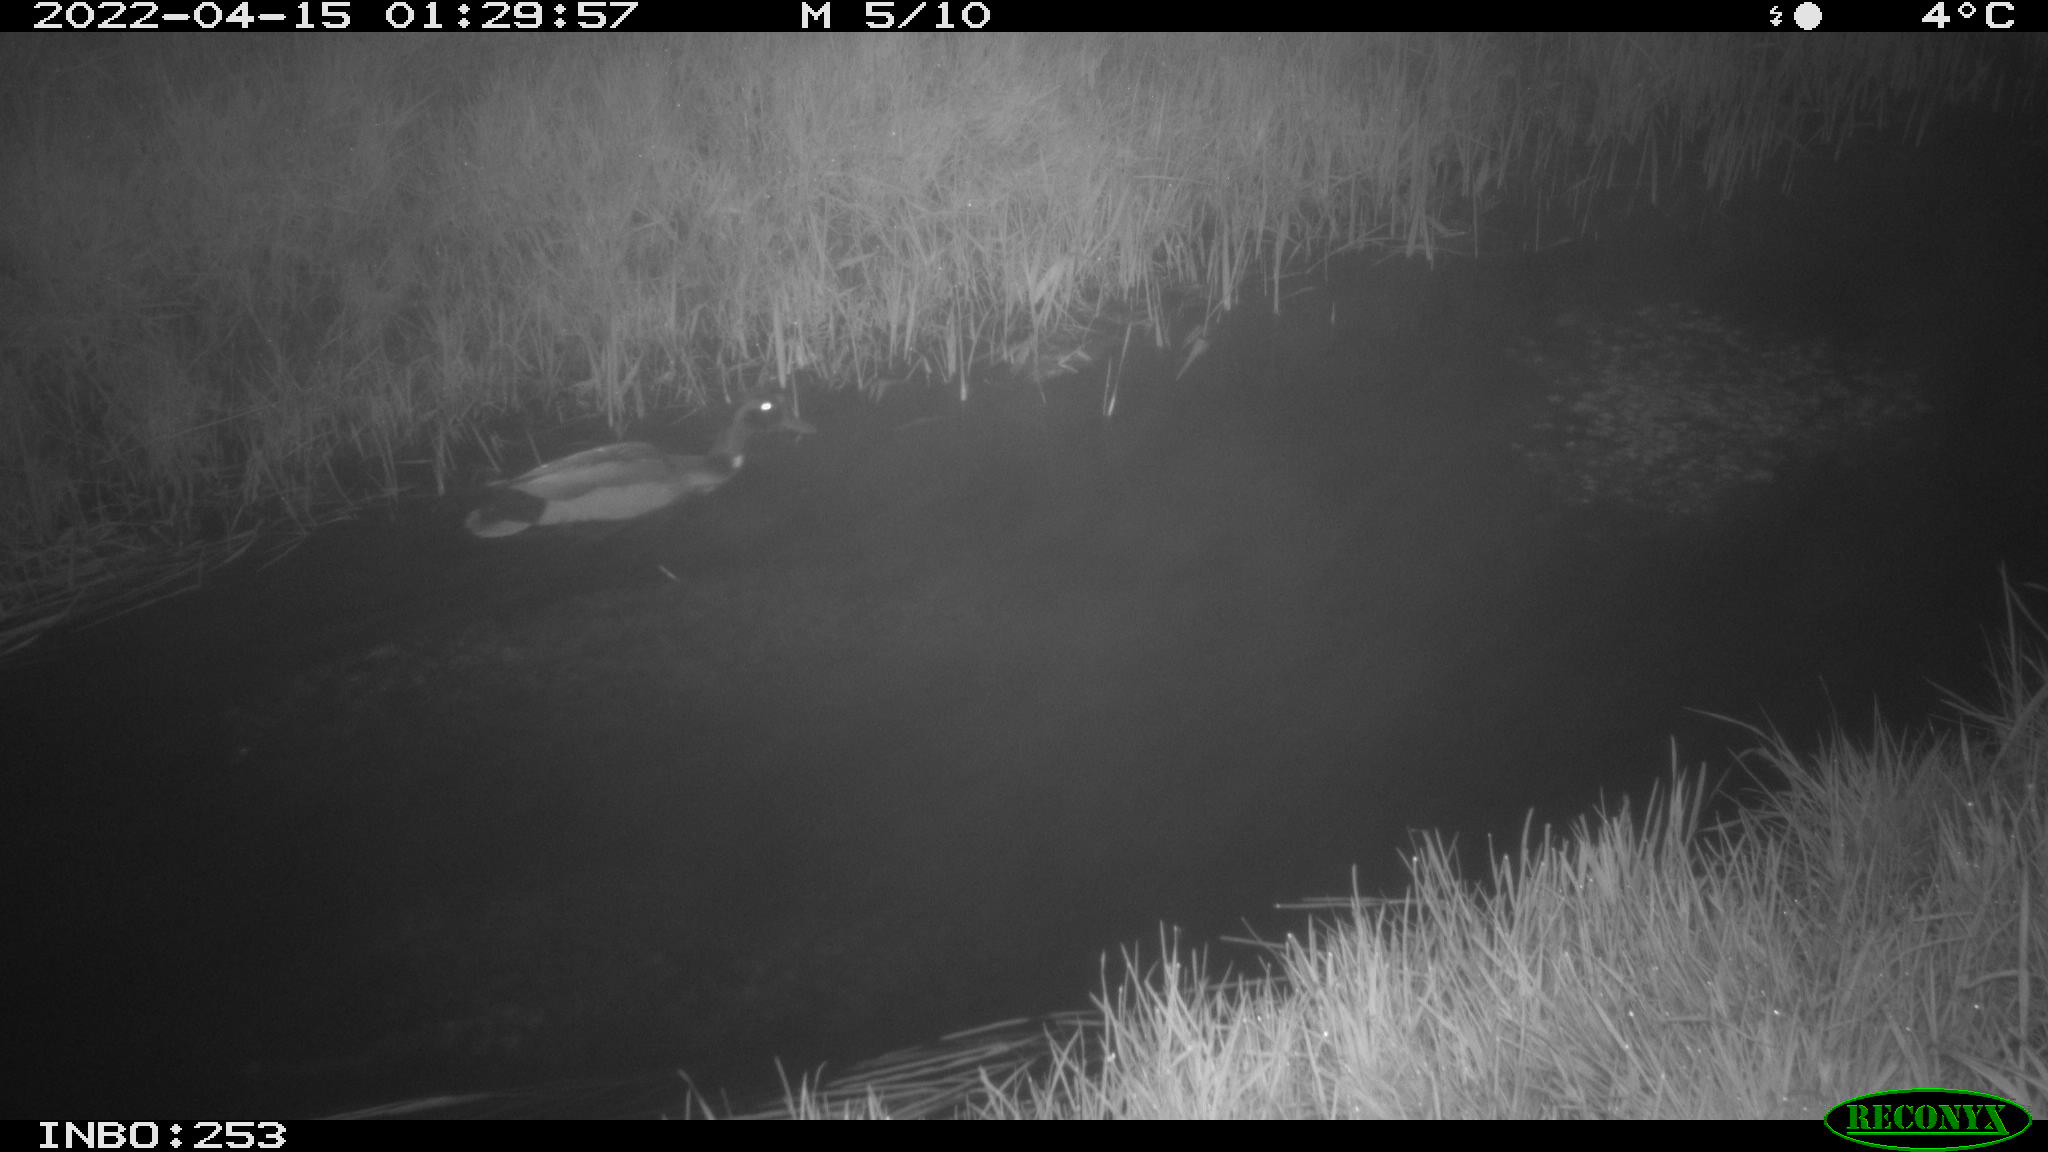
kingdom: Animalia
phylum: Chordata
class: Aves
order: Anseriformes
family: Anatidae
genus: Anas
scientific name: Anas platyrhynchos
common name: Mallard
